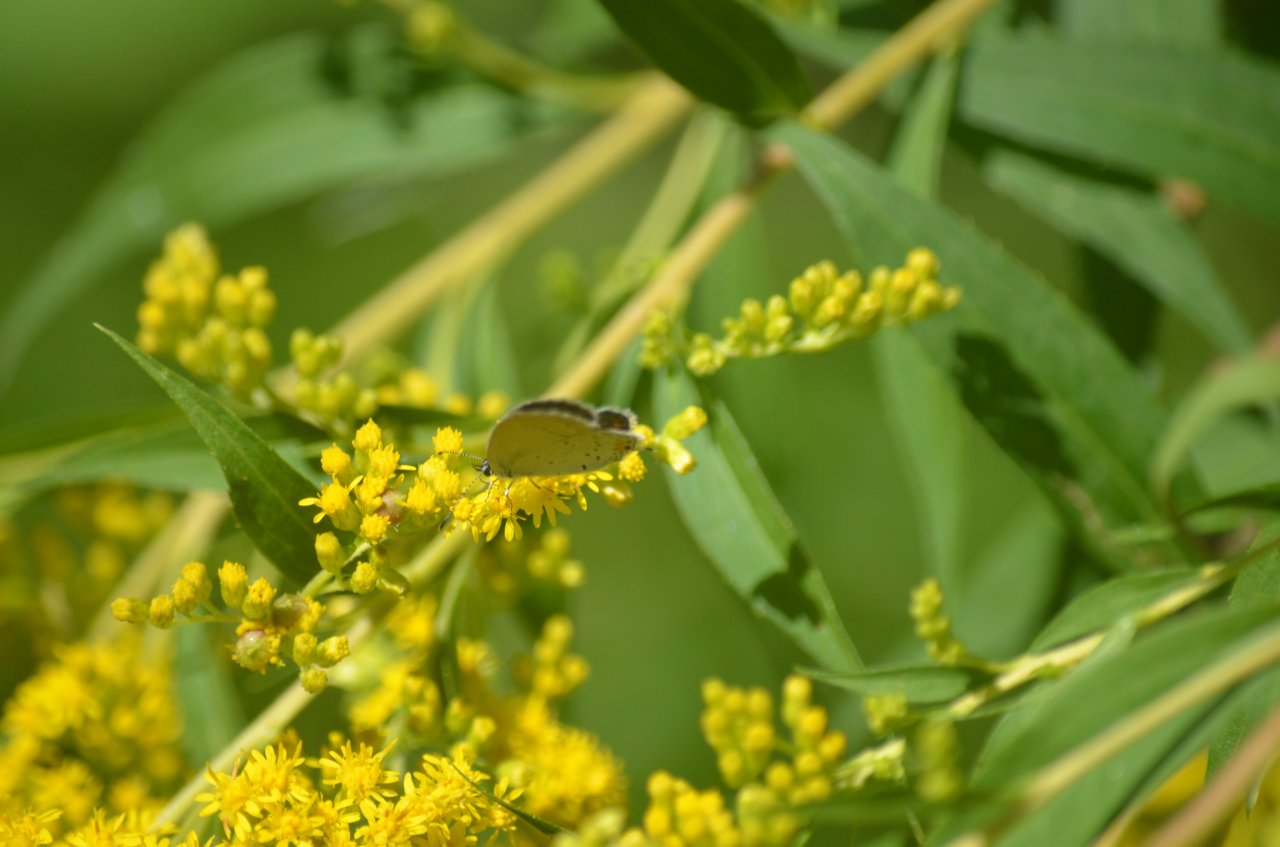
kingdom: Animalia
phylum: Arthropoda
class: Insecta
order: Lepidoptera
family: Lycaenidae
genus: Elkalyce
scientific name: Elkalyce comyntas
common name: Eastern Tailed-Blue
